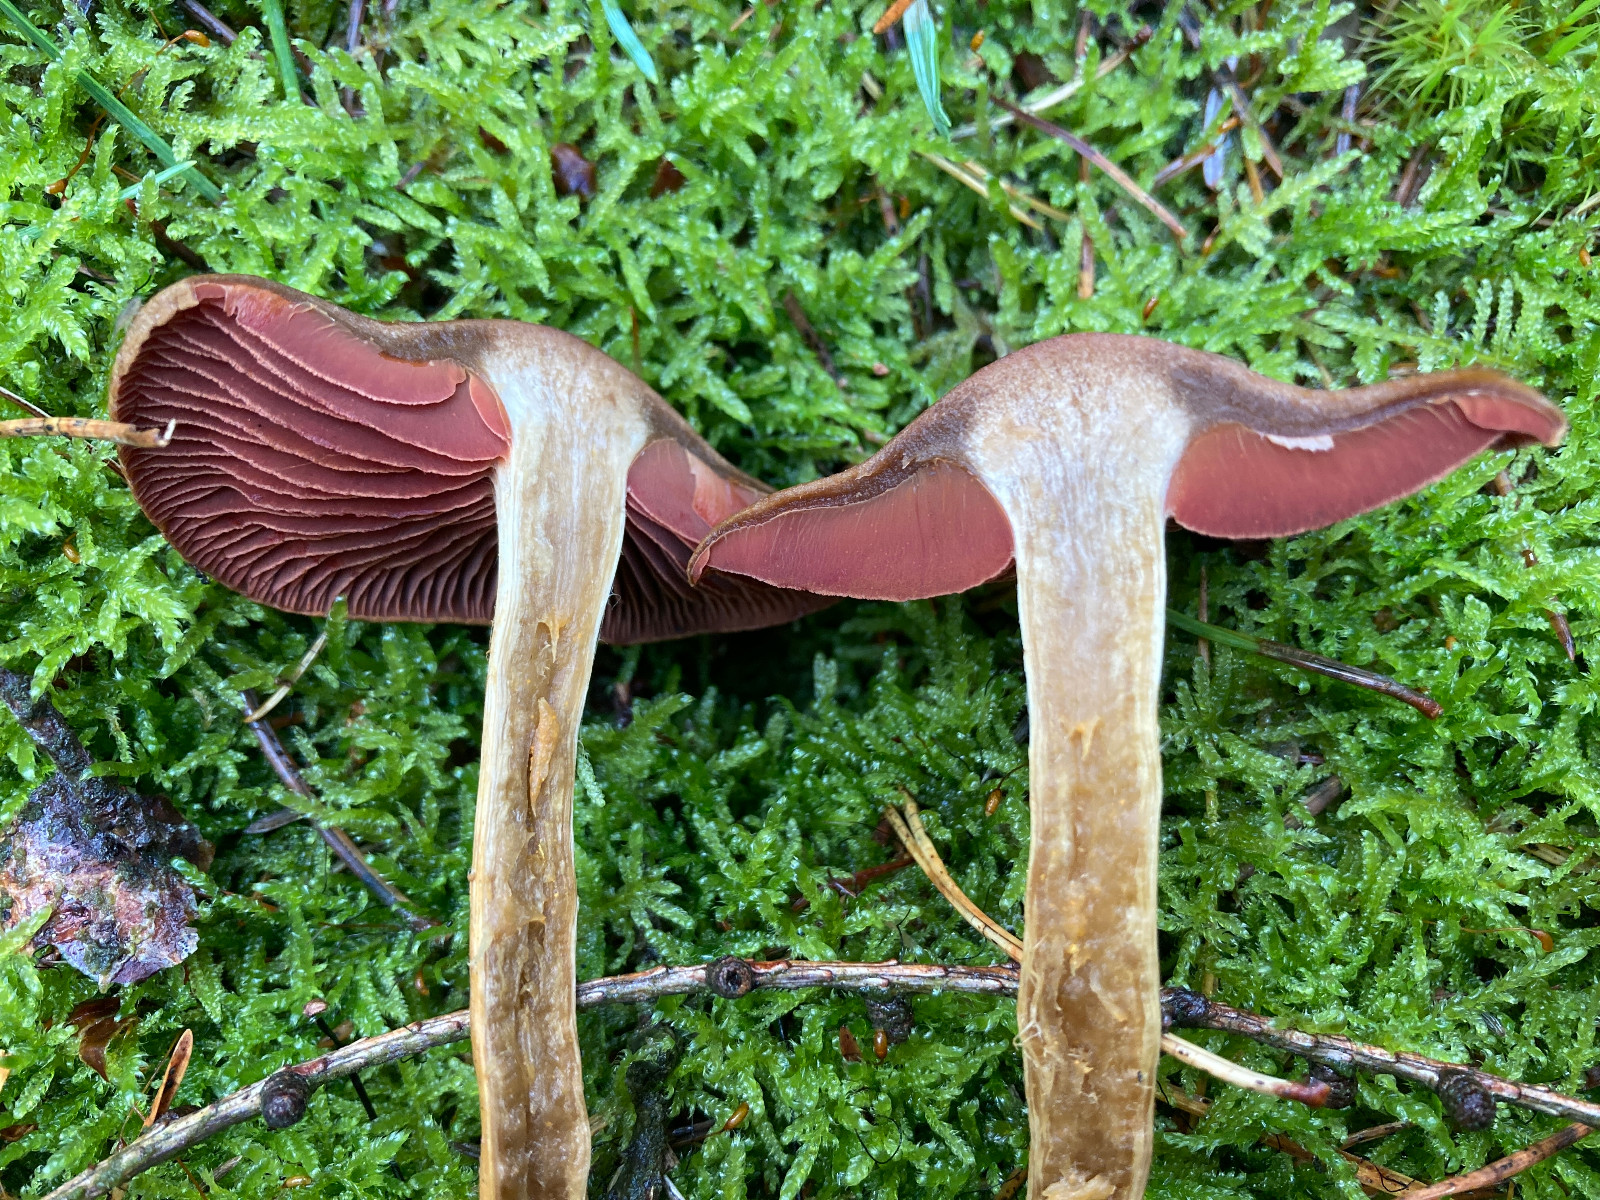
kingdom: Fungi
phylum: Basidiomycota
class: Agaricomycetes
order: Agaricales
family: Cortinariaceae
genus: Cortinarius
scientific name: Cortinarius
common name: cinnoberbladet slørhat
